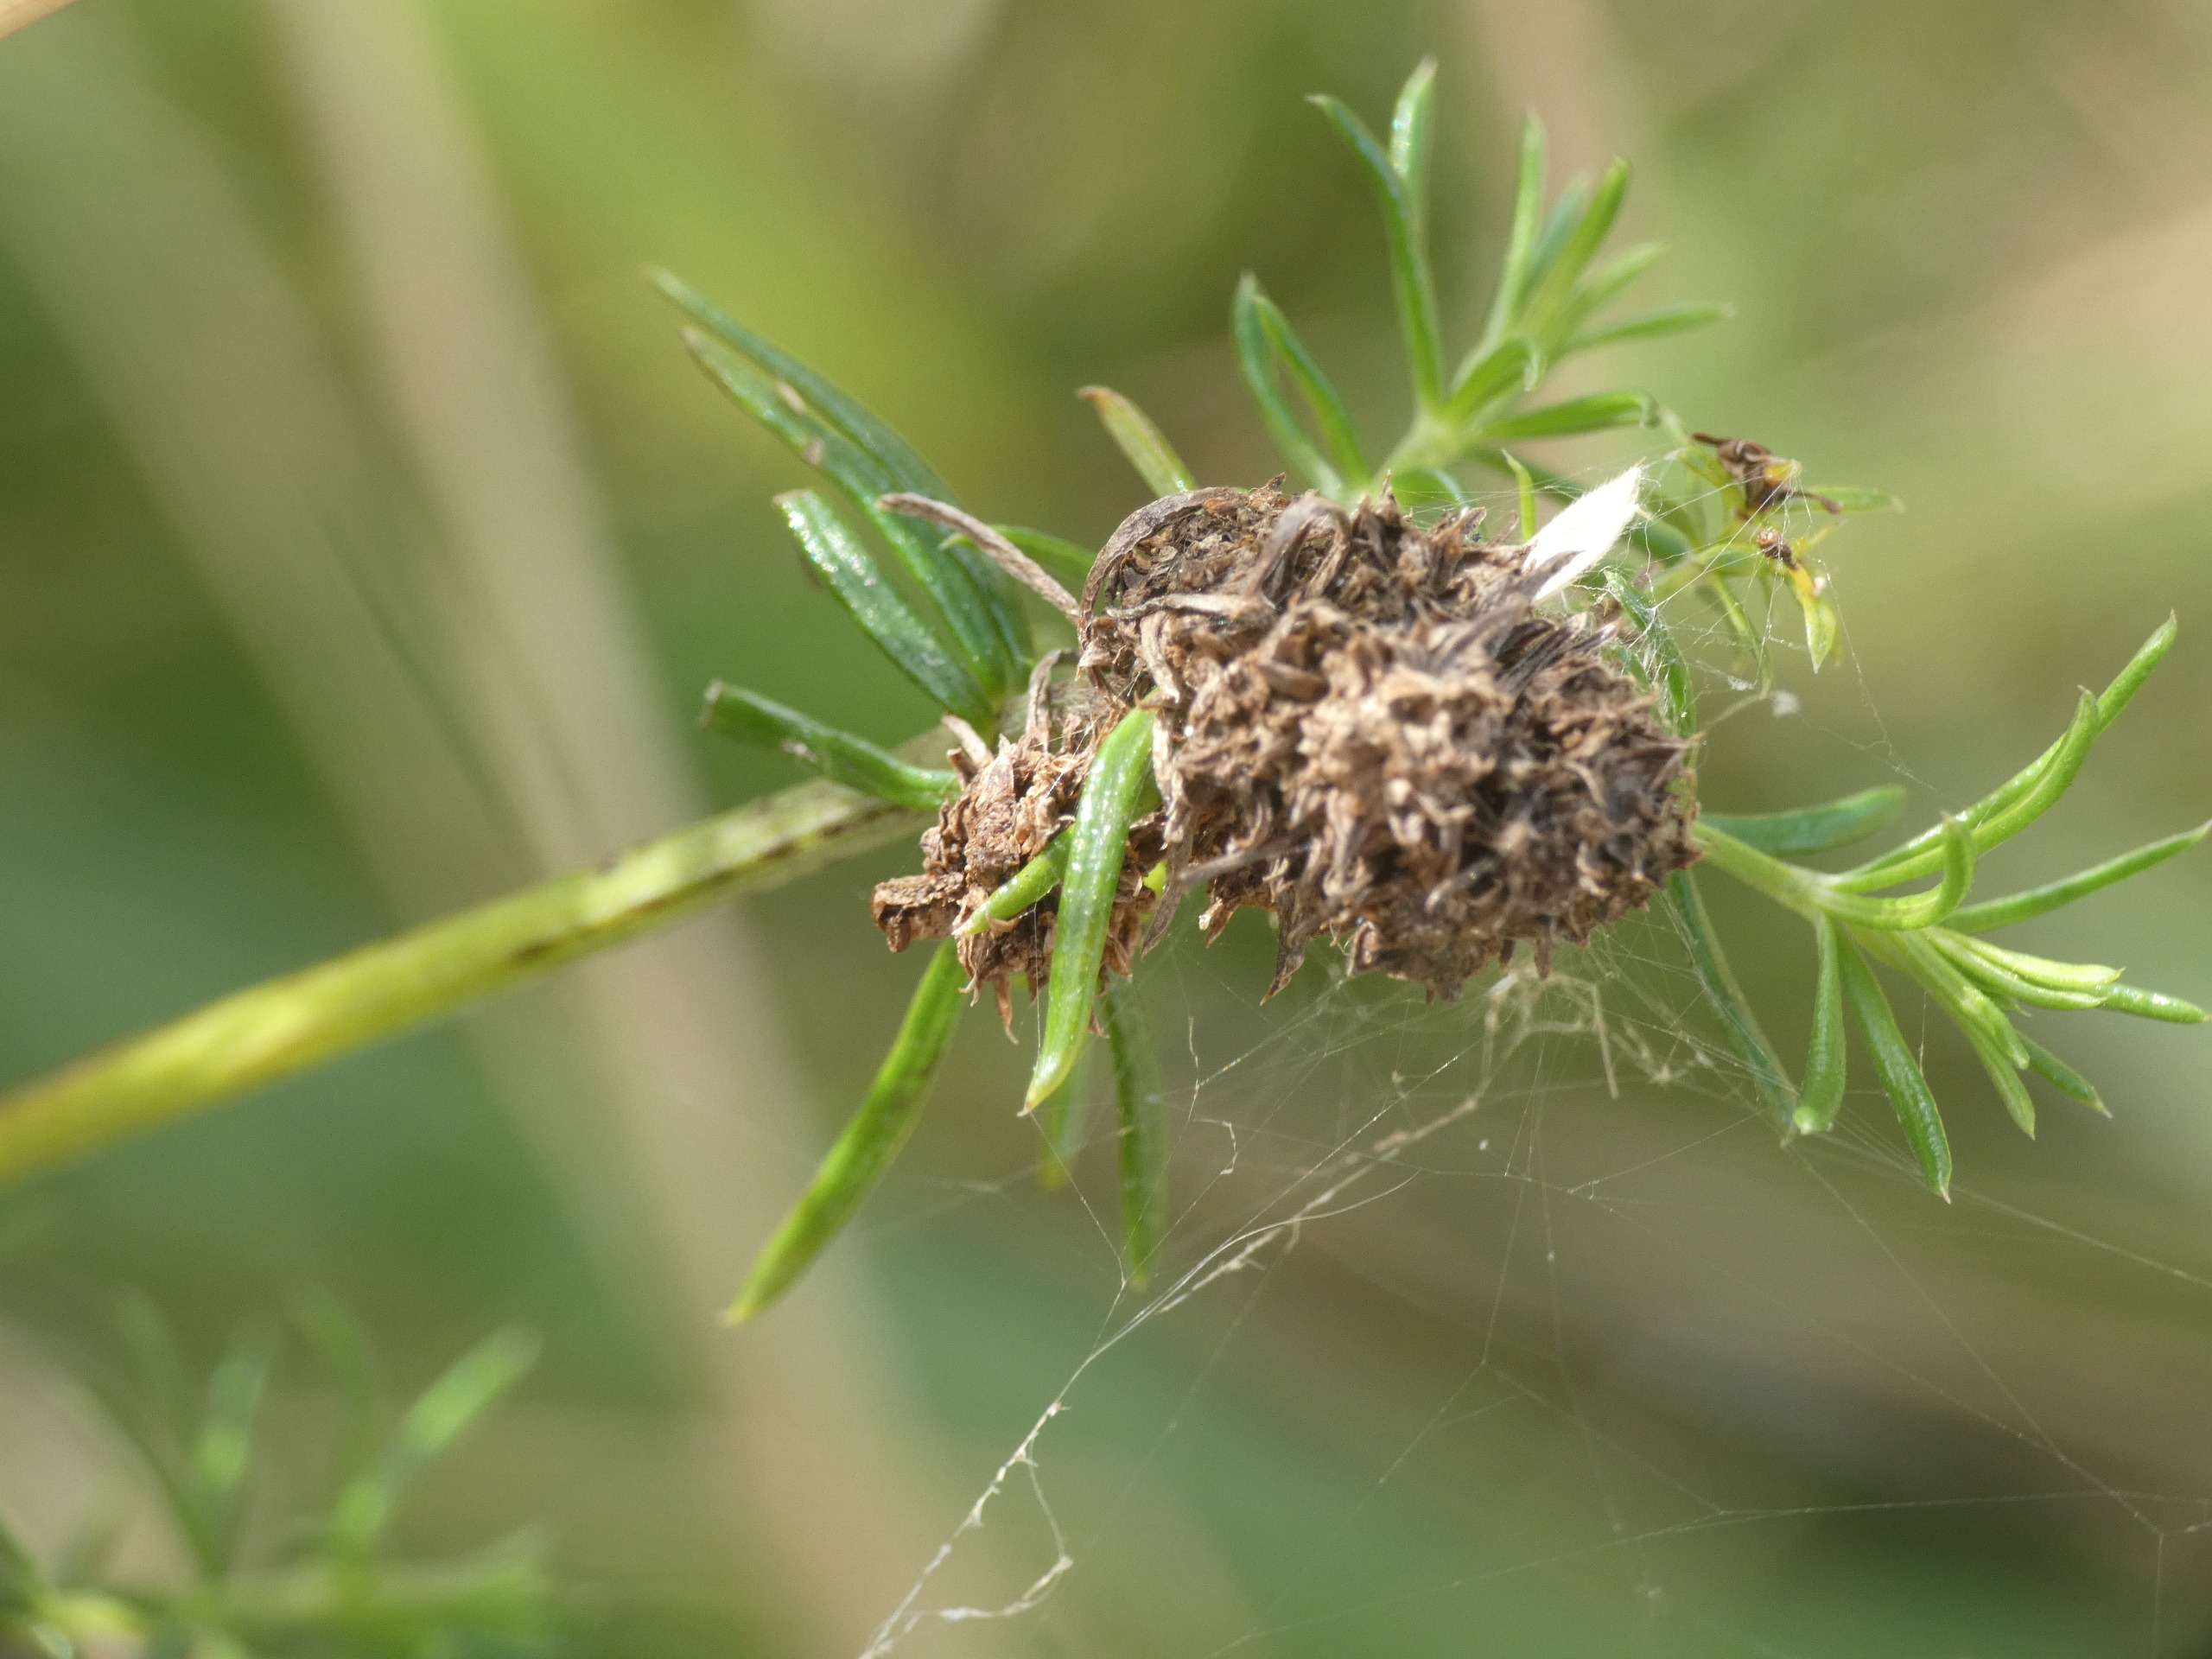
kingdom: Plantae
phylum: Tracheophyta
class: Magnoliopsida
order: Gentianales
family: Rubiaceae
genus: Galium
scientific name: Galium verum
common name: Gul snerre
